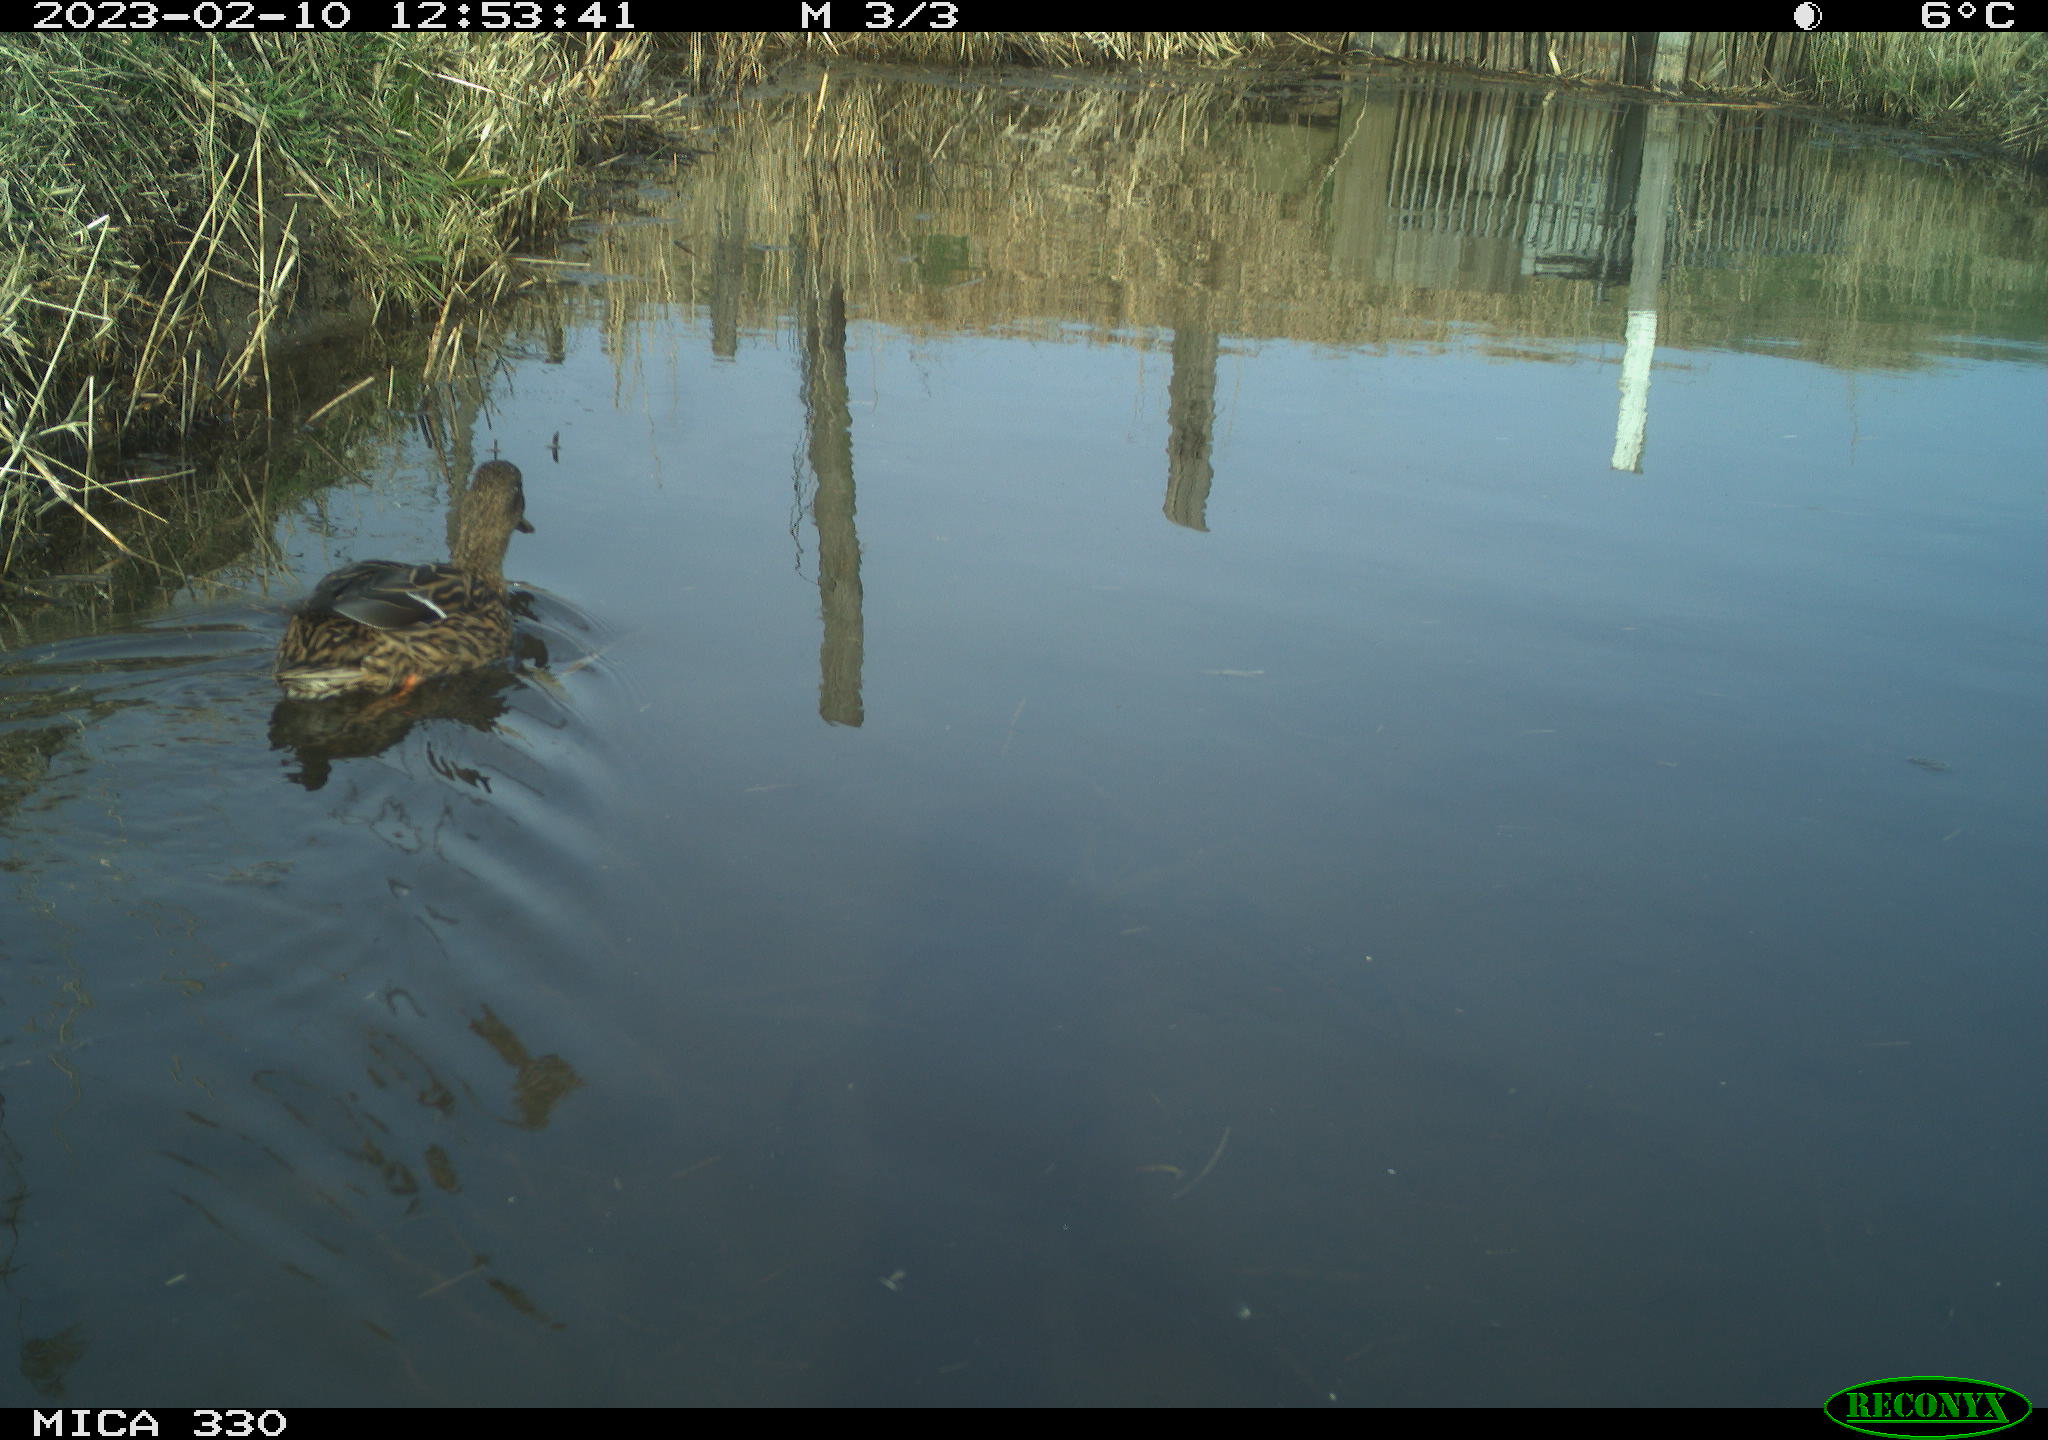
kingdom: Animalia
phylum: Chordata
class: Aves
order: Anseriformes
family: Anatidae
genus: Anas
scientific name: Anas
